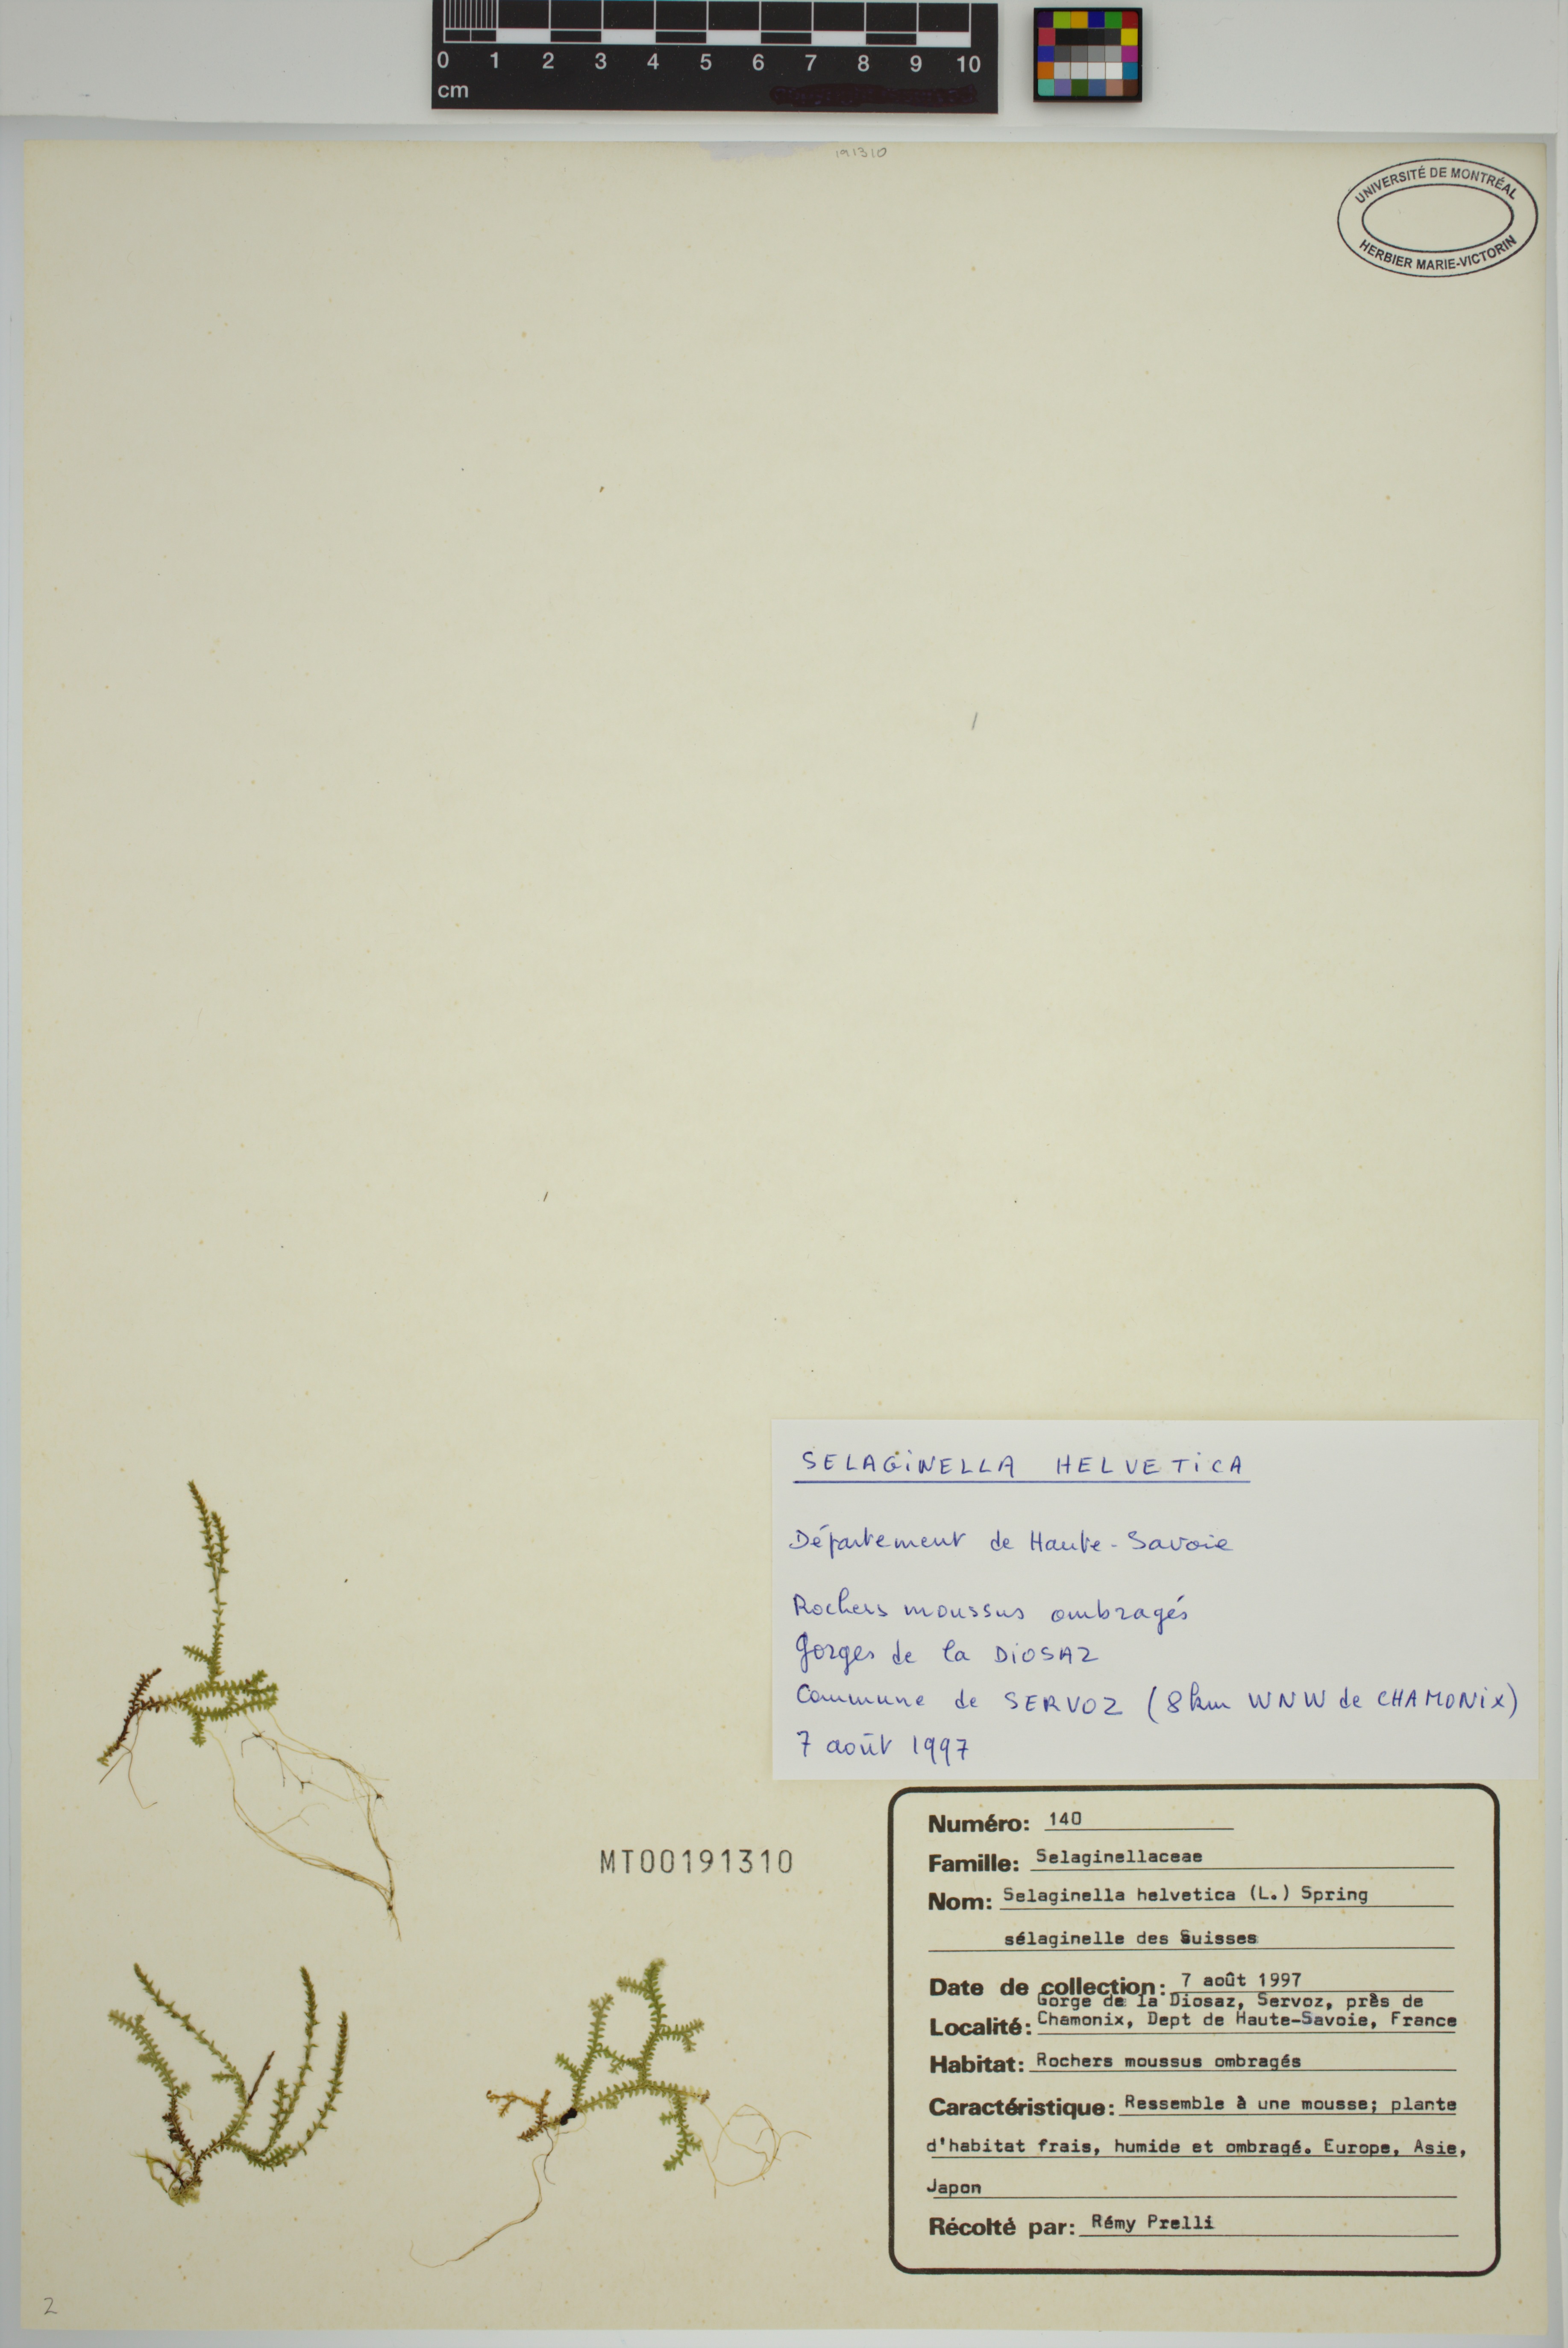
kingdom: Plantae
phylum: Tracheophyta
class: Lycopodiopsida
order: Selaginellales
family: Selaginellaceae
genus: Selaginella
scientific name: Selaginella helvetica
